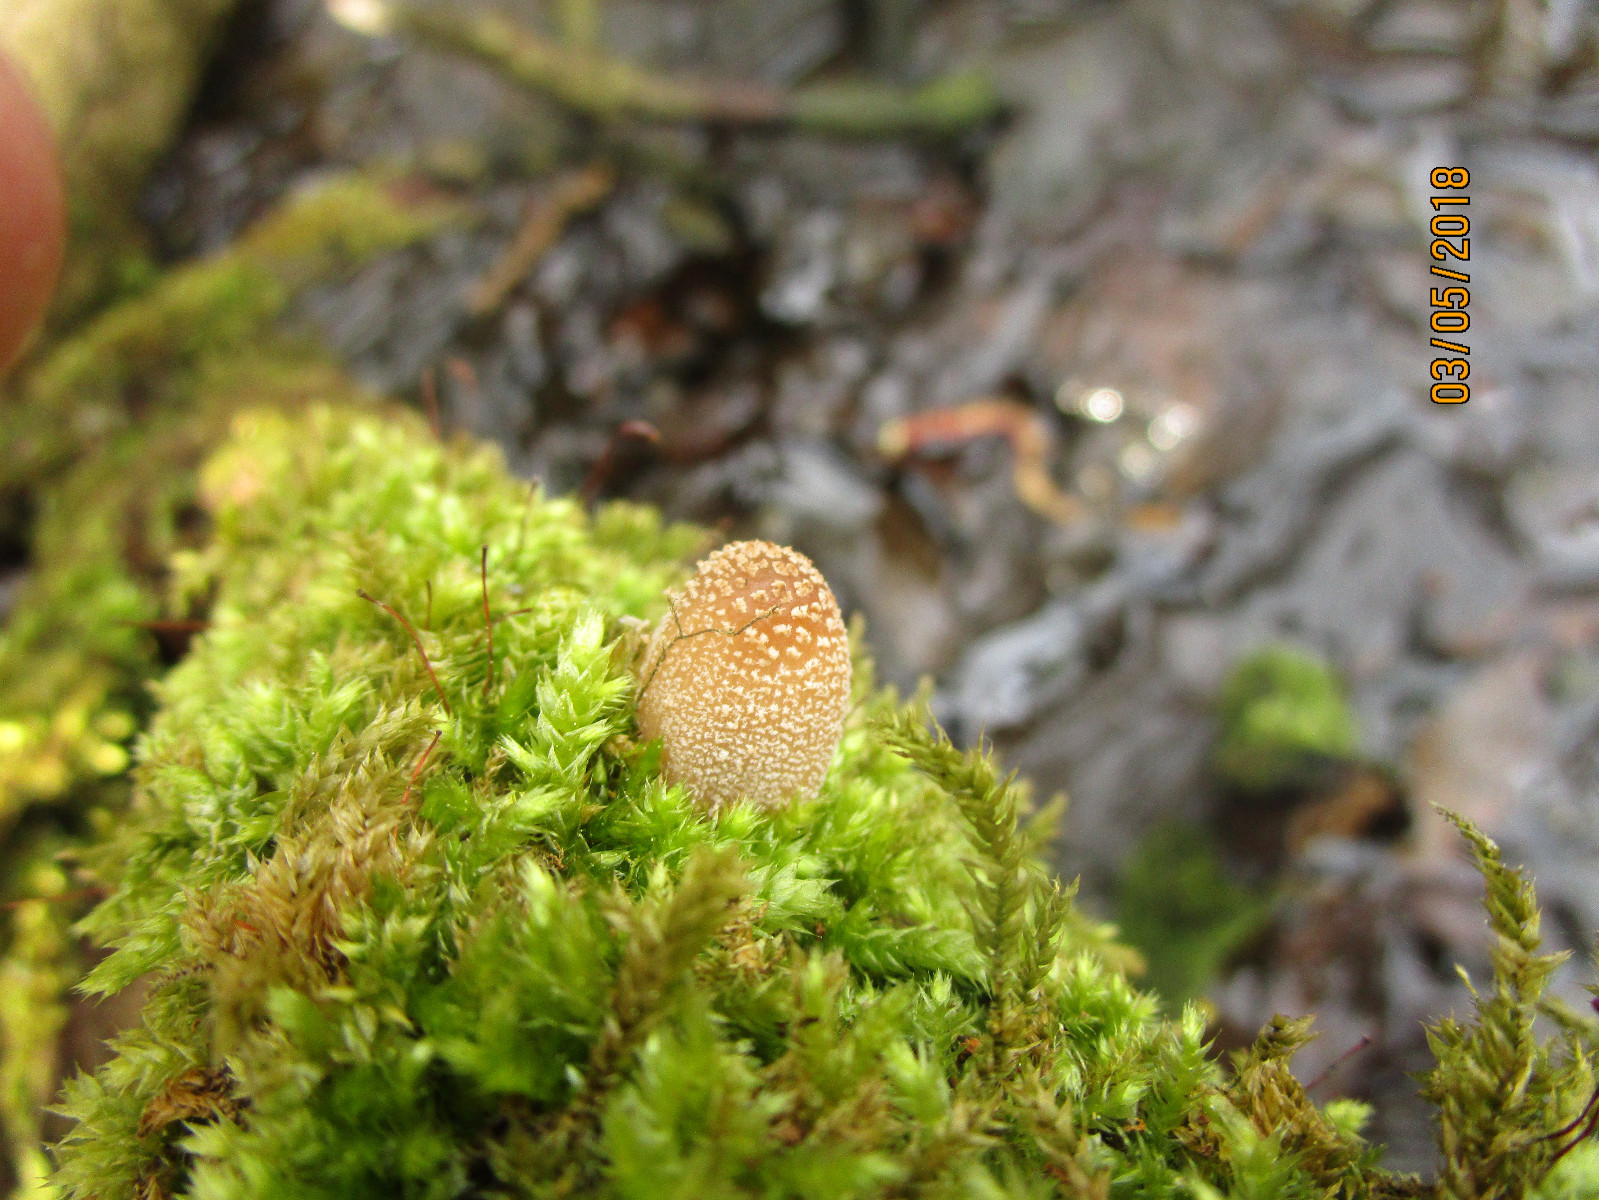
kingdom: Fungi
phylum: Basidiomycota
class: Agaricomycetes
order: Agaricales
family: Psathyrellaceae
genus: Coprinellus
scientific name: Coprinellus radians
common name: grynet blækhat
